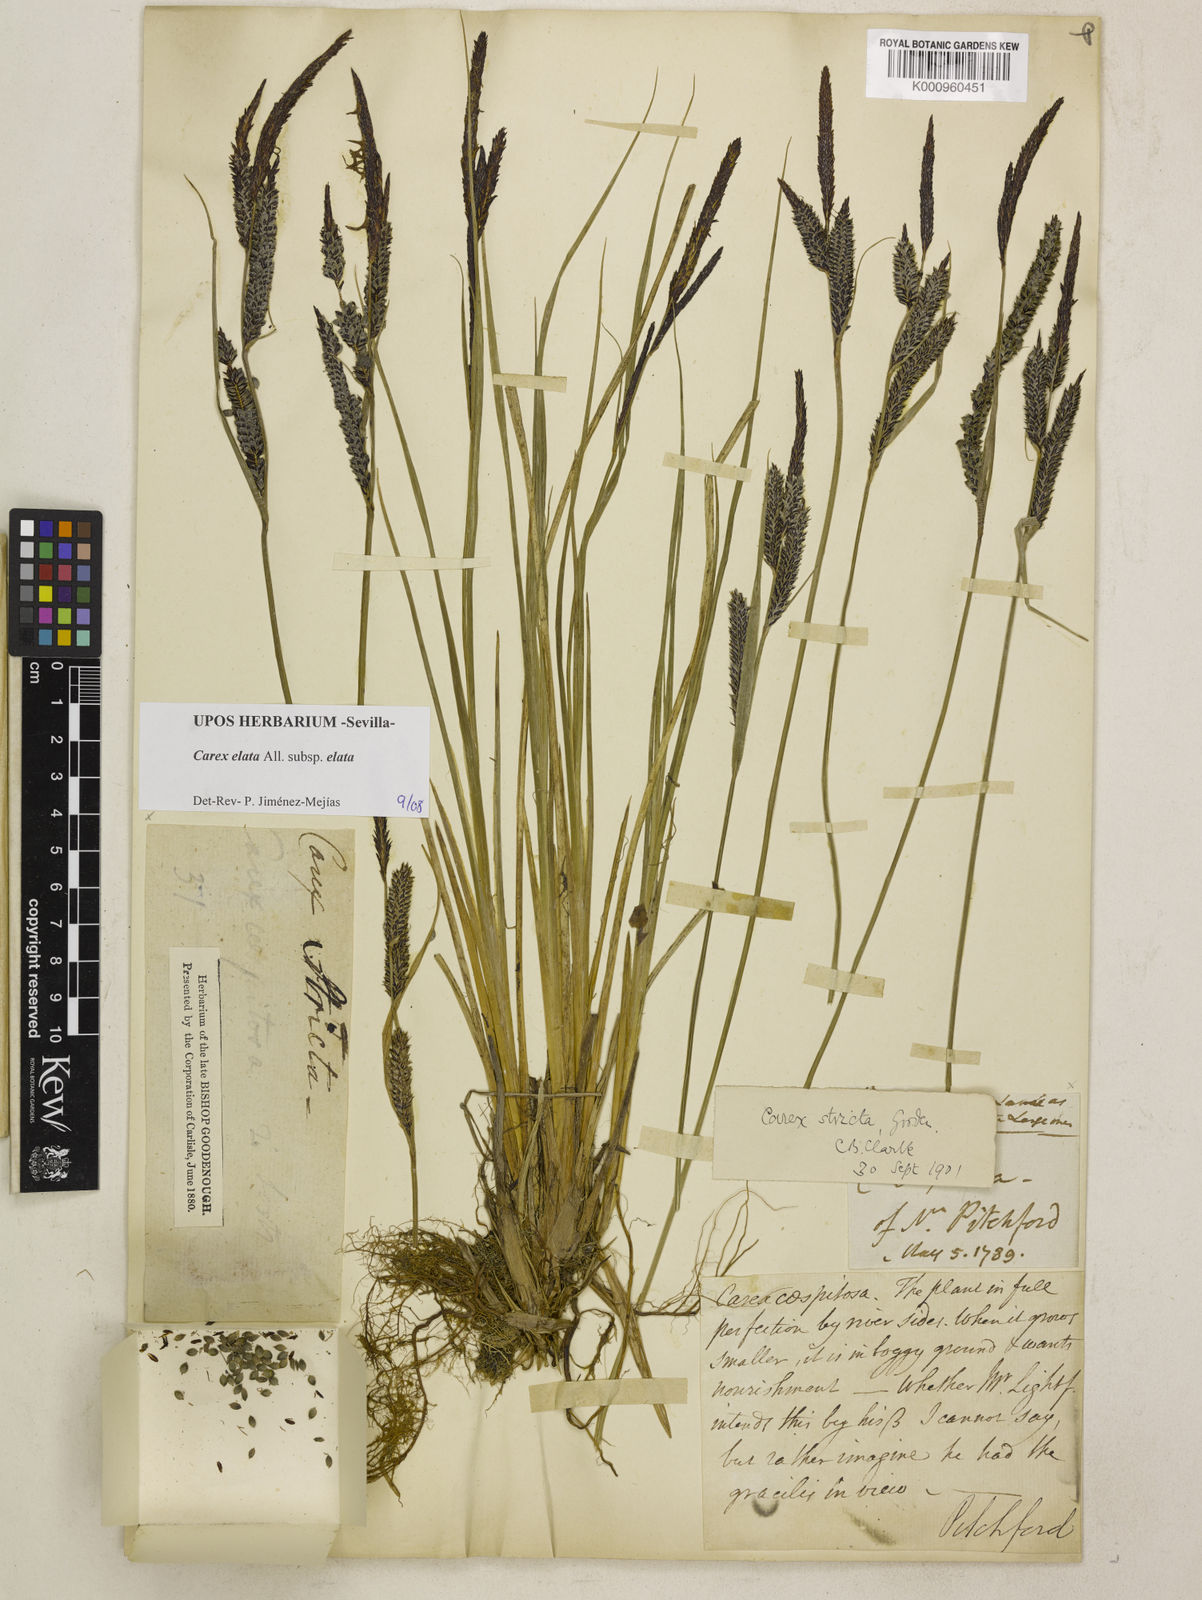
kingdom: Plantae
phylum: Tracheophyta
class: Liliopsida
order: Poales
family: Cyperaceae
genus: Carex
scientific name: Carex nigra
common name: Common sedge
